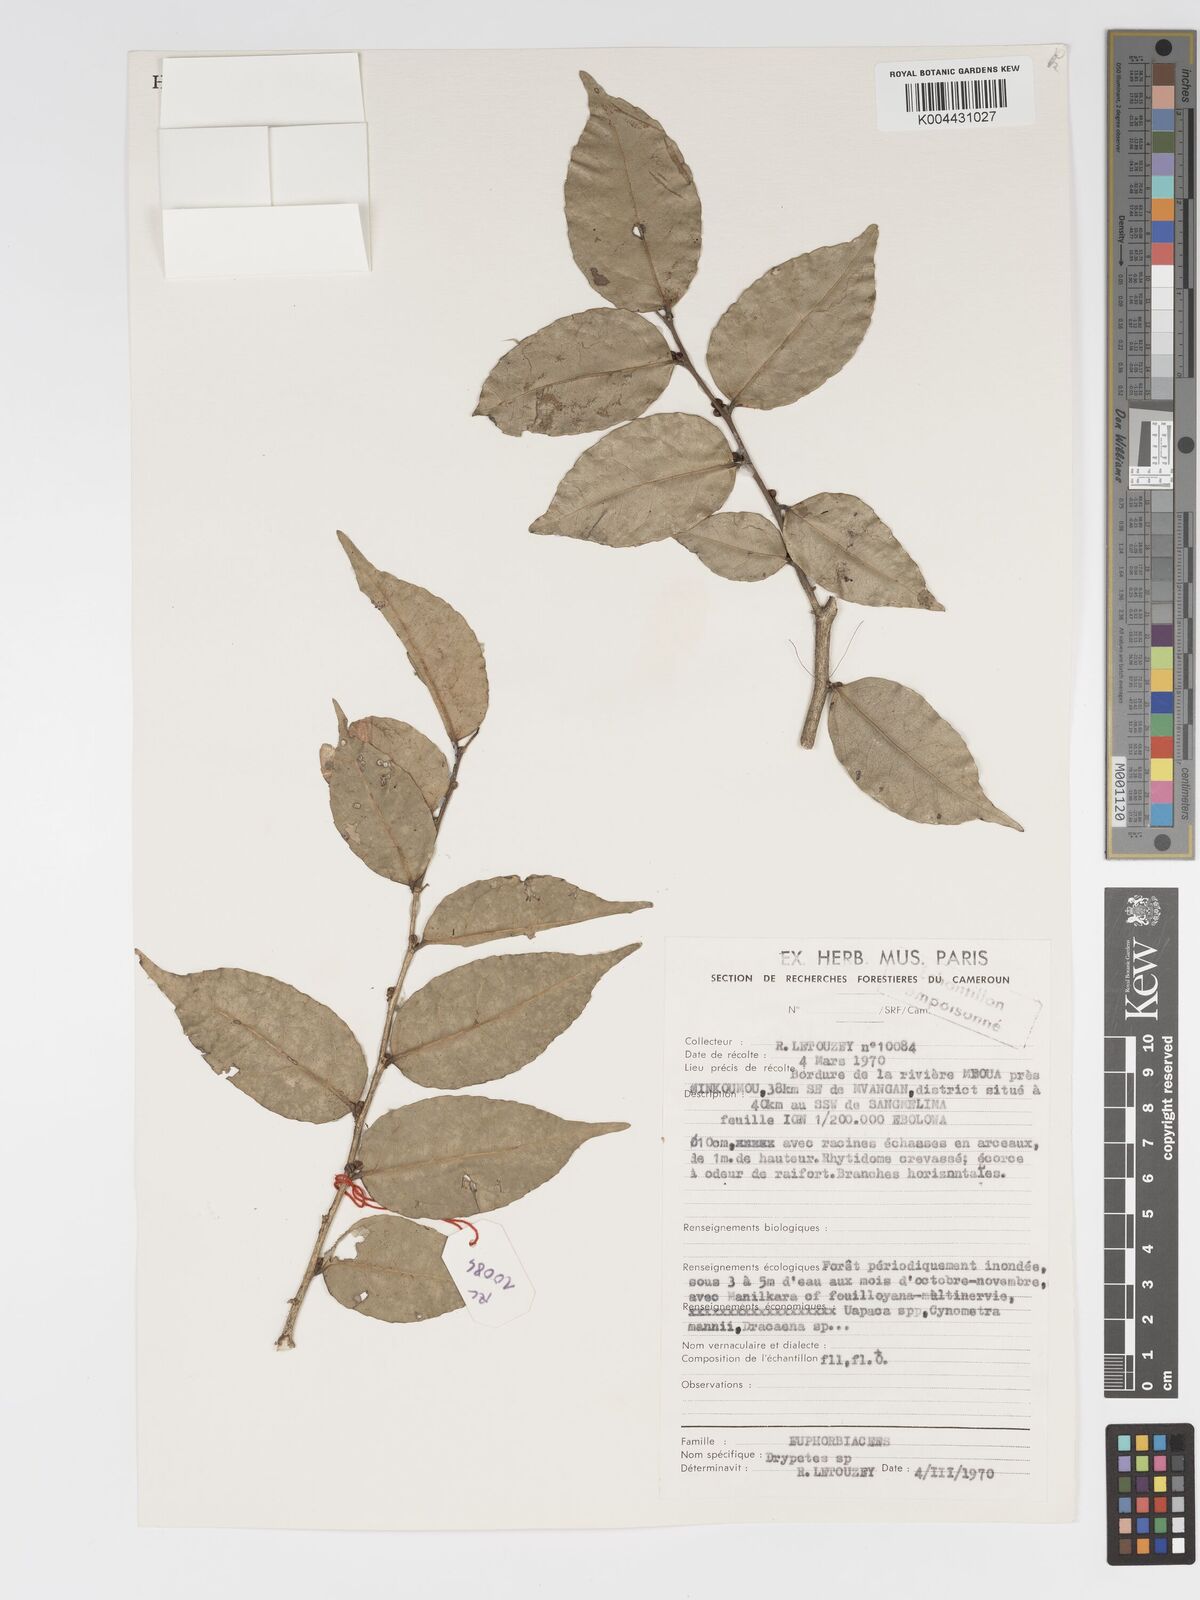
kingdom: Plantae
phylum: Tracheophyta
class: Magnoliopsida
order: Malpighiales
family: Putranjivaceae
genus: Drypetes
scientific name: Drypetes
